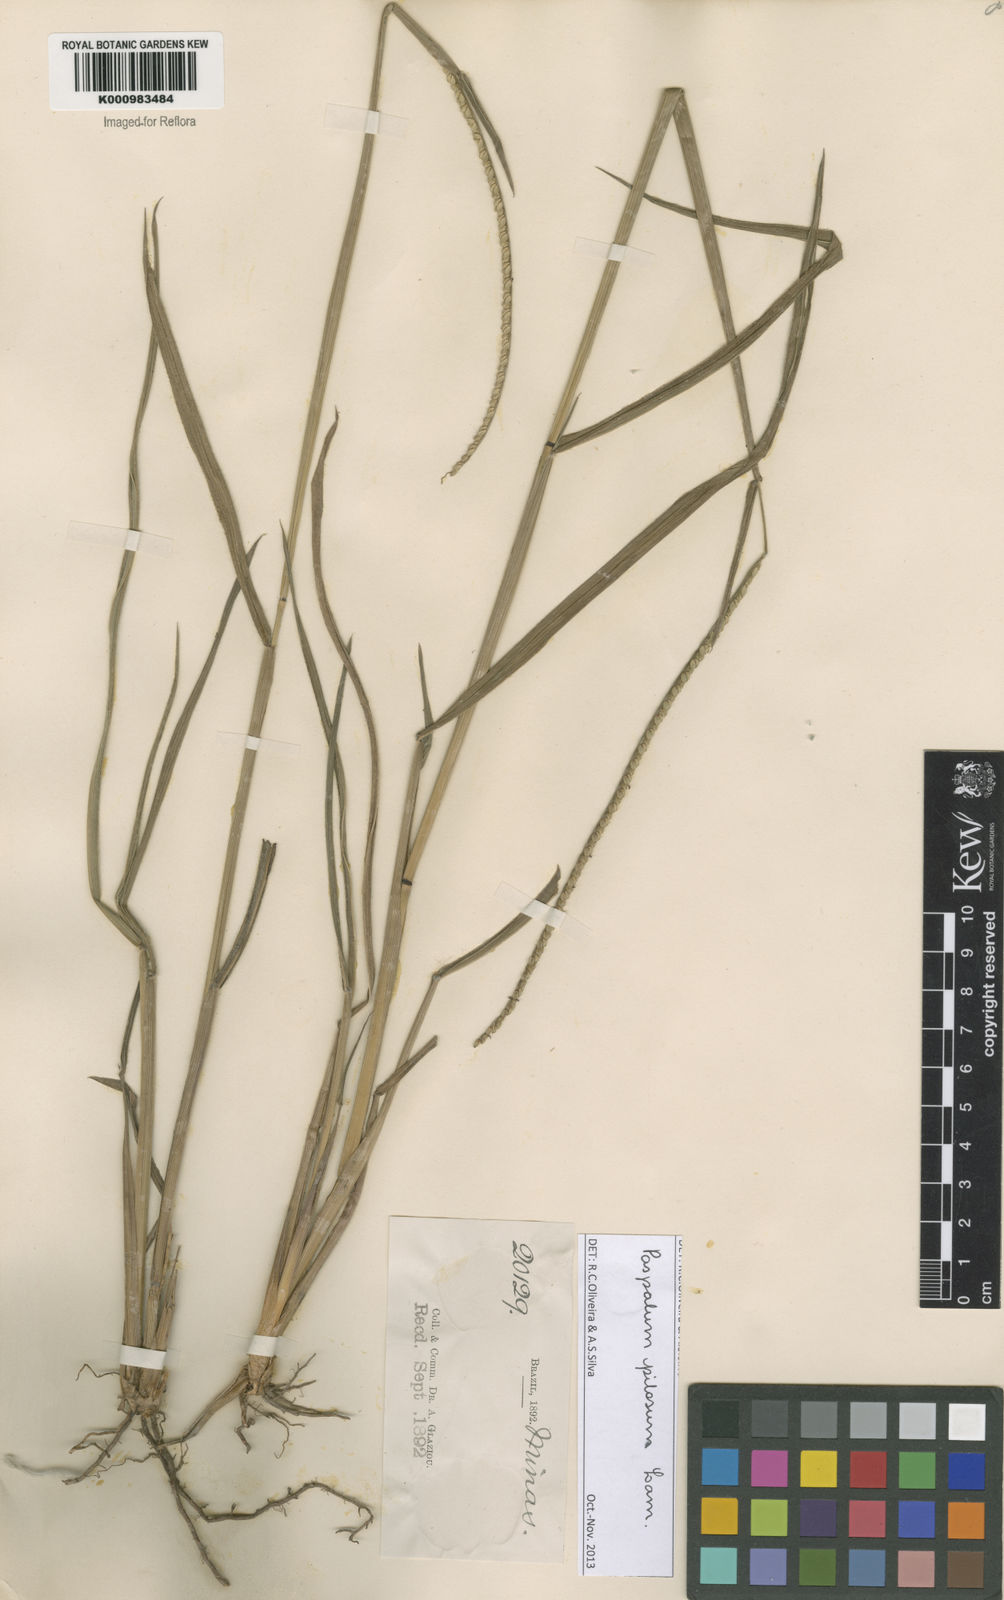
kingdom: Plantae
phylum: Tracheophyta
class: Liliopsida
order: Poales
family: Poaceae
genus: Paspalum
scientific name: Paspalum pilosum
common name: Crowngrass
